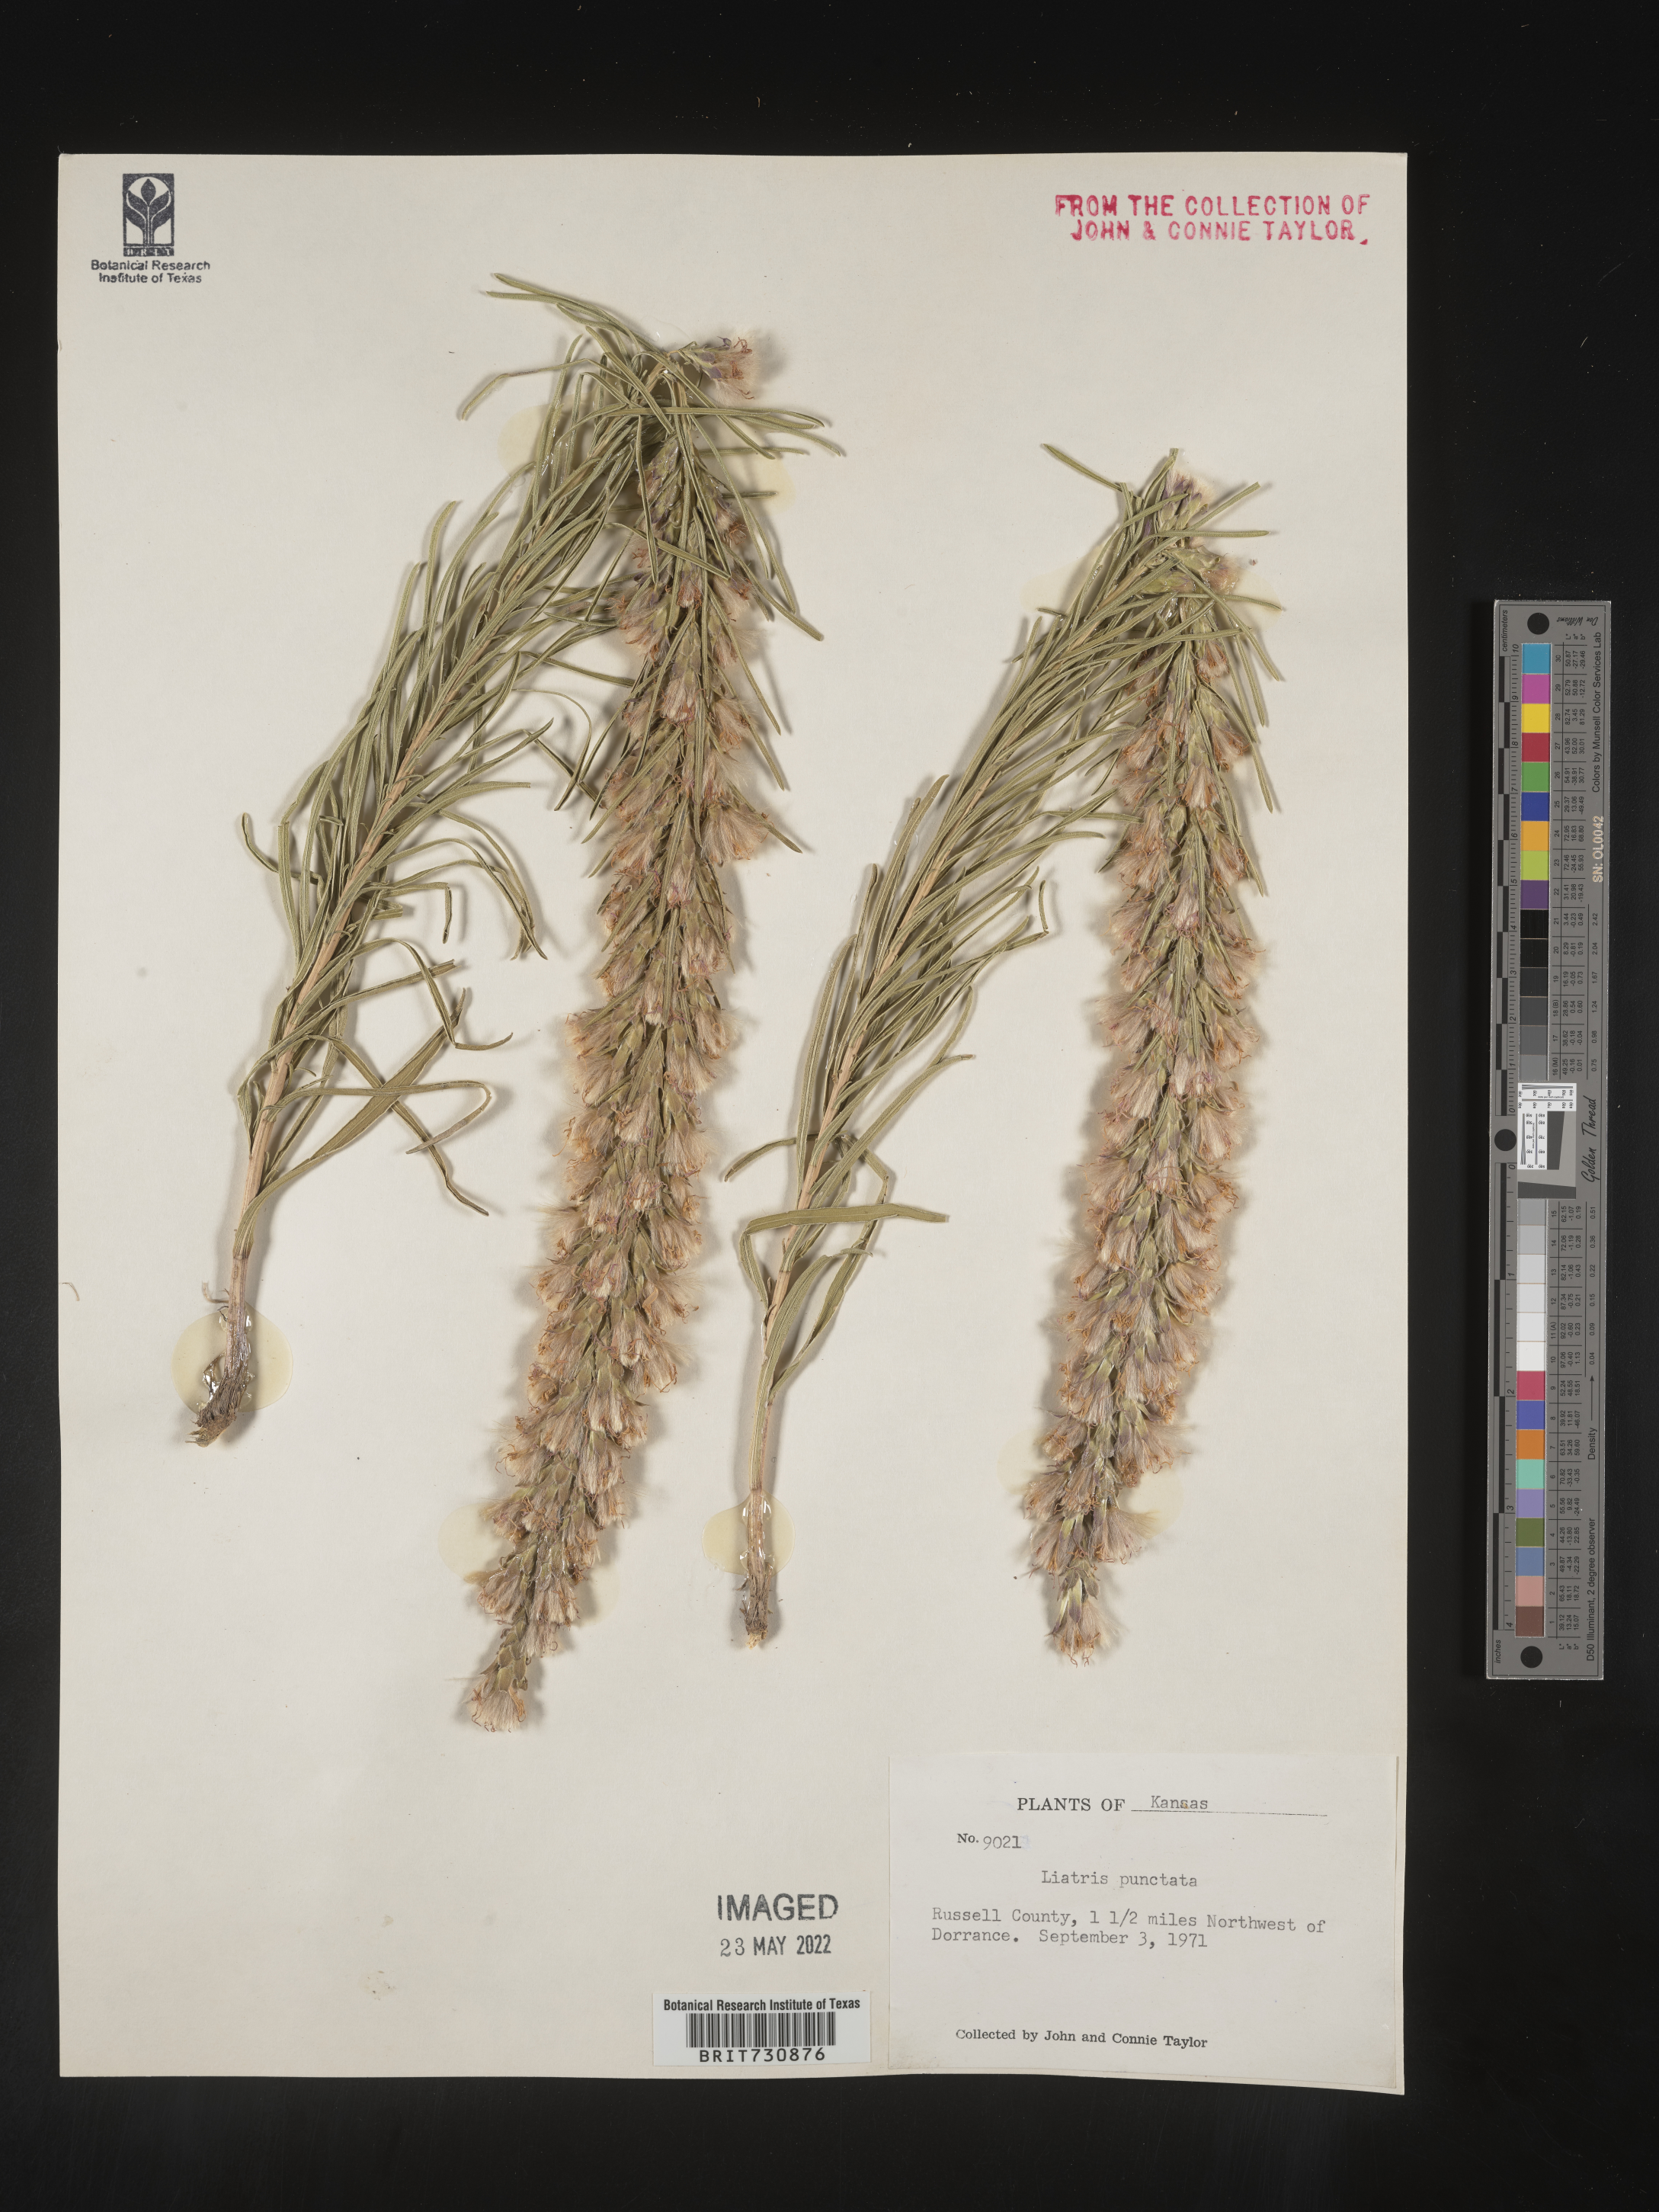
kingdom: Plantae
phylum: Tracheophyta
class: Magnoliopsida
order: Asterales
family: Asteraceae
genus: Liatris
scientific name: Liatris punctata
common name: Dotted gayfeather
